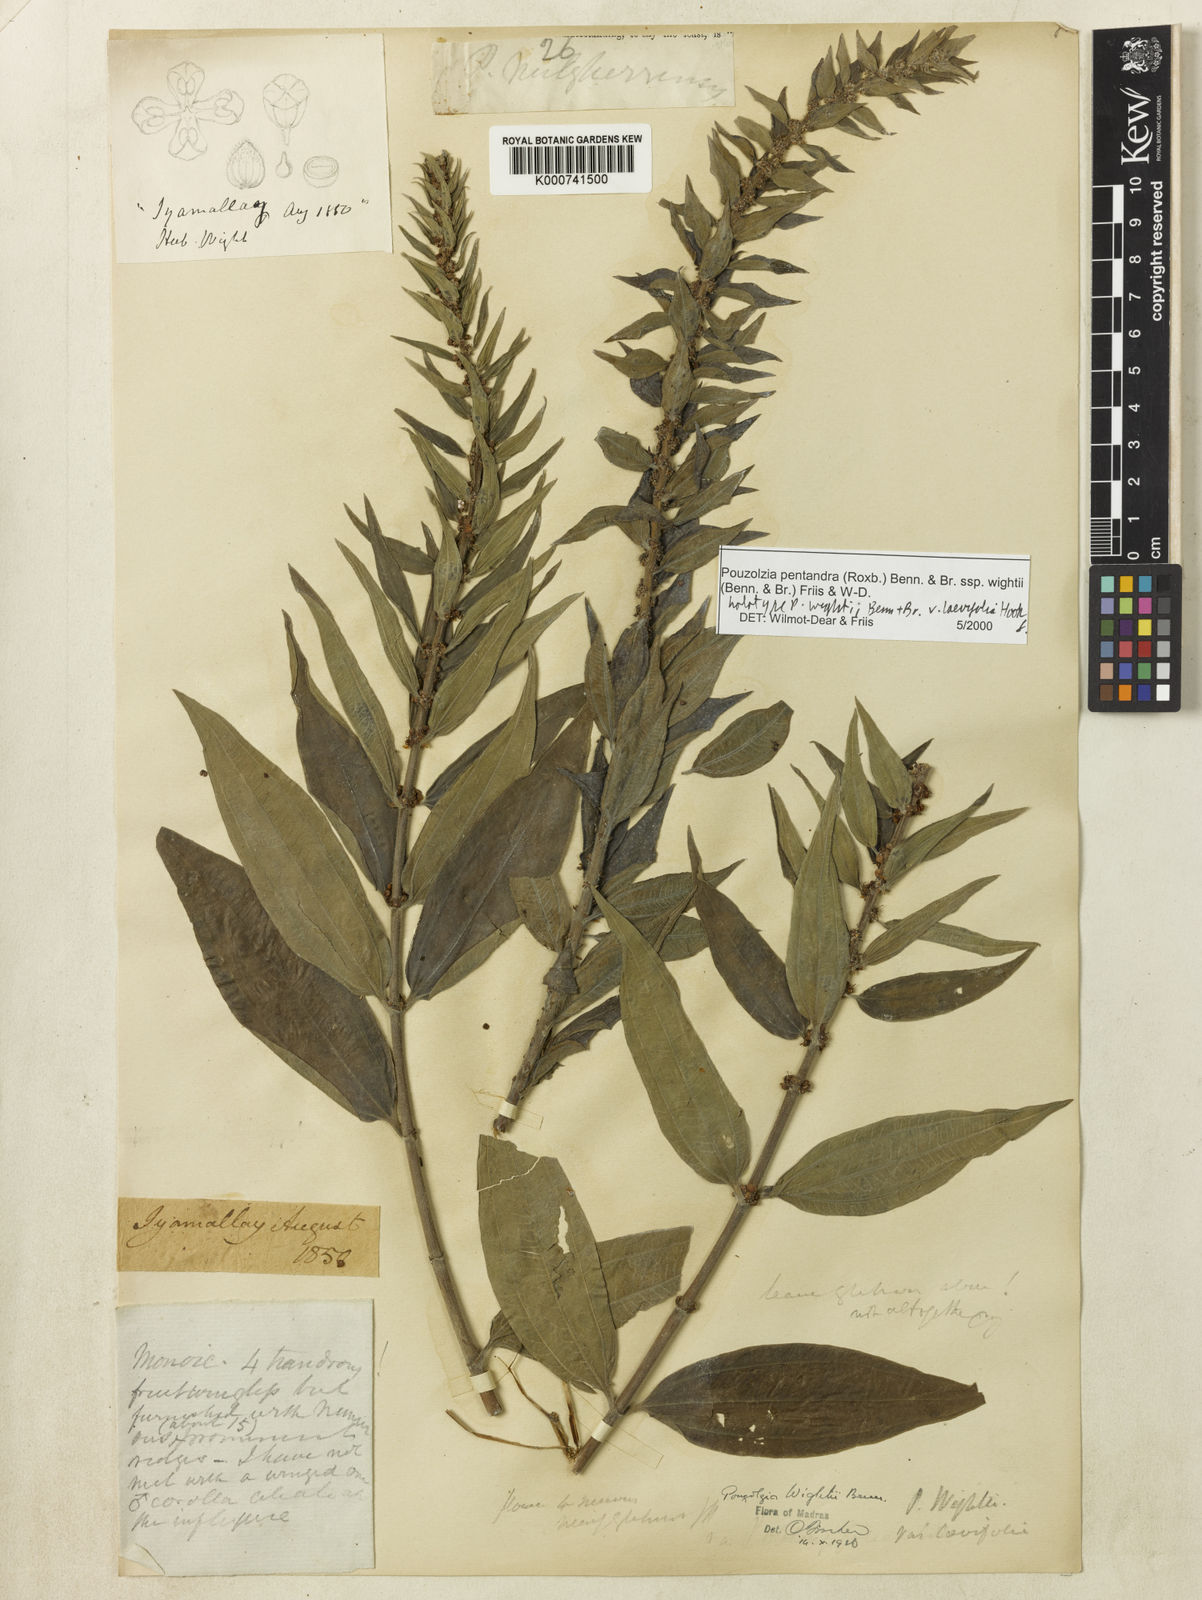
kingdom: Plantae
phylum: Tracheophyta
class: Magnoliopsida
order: Rosales
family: Urticaceae
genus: Gonostegia
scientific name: Gonostegia pentandra
